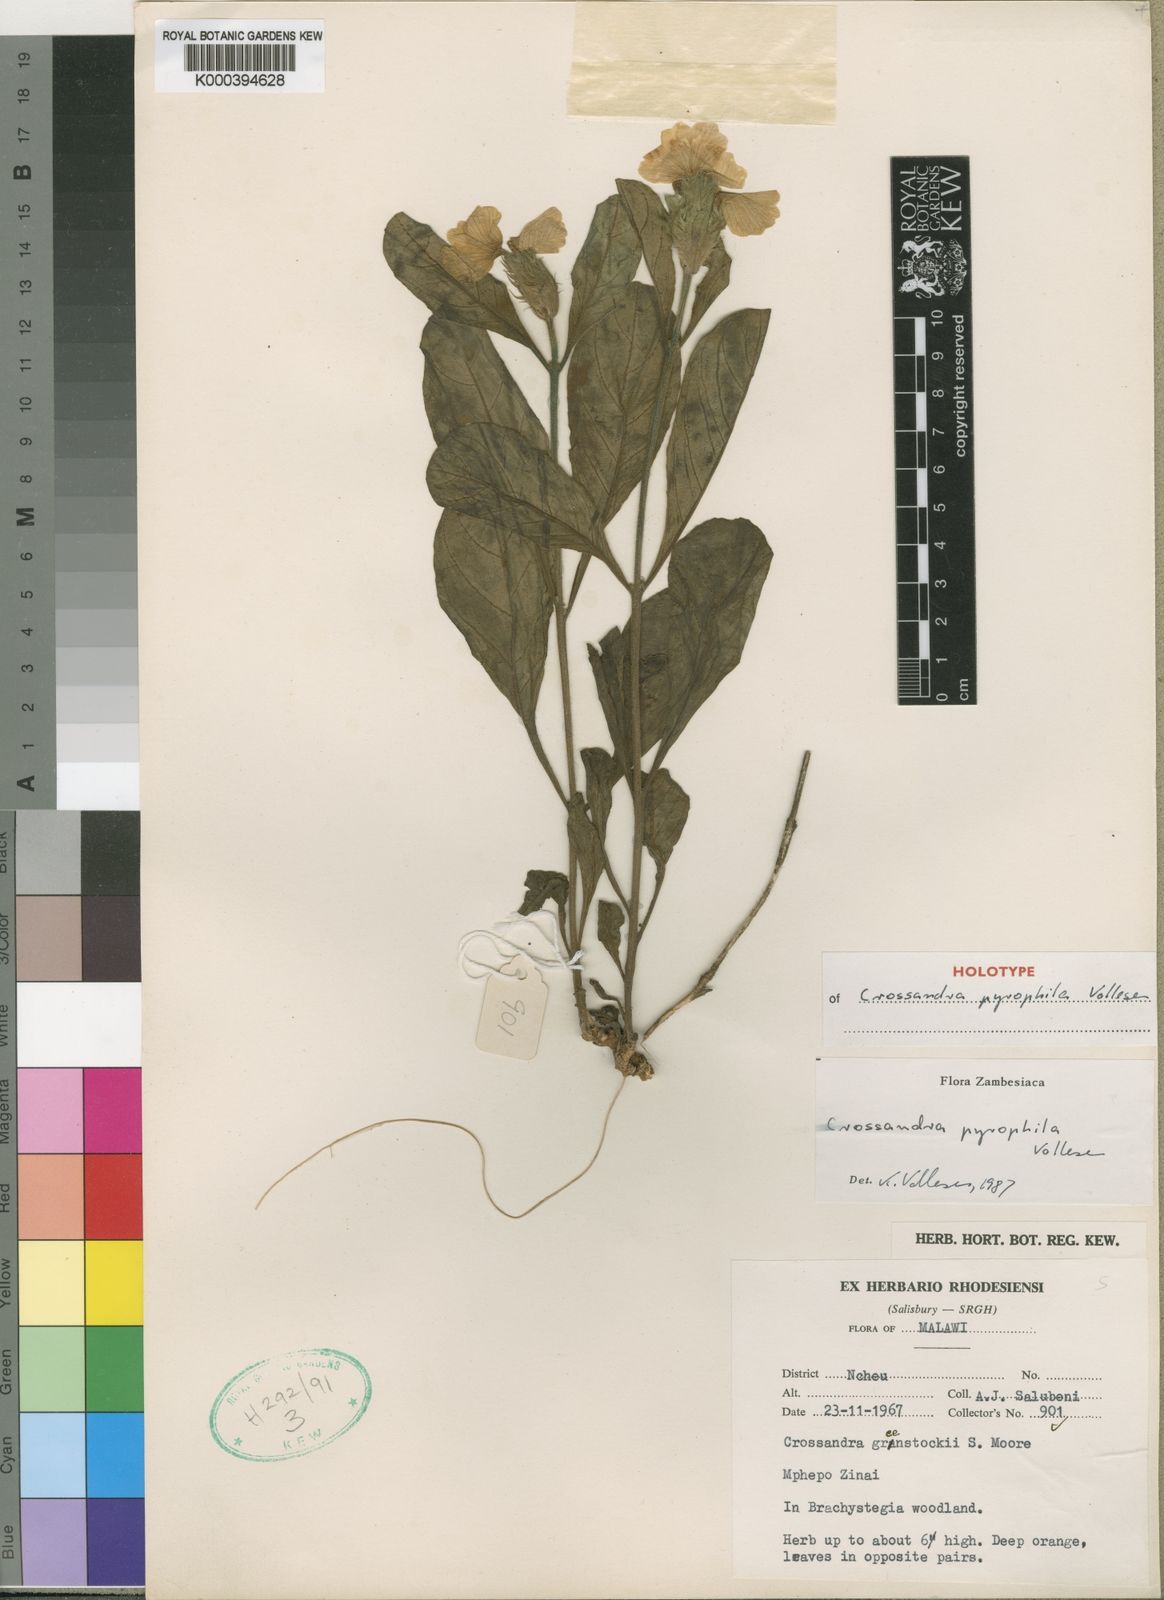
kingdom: Plantae
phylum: Tracheophyta
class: Magnoliopsida
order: Lamiales
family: Acanthaceae
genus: Crossandra
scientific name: Crossandra pyrophila
